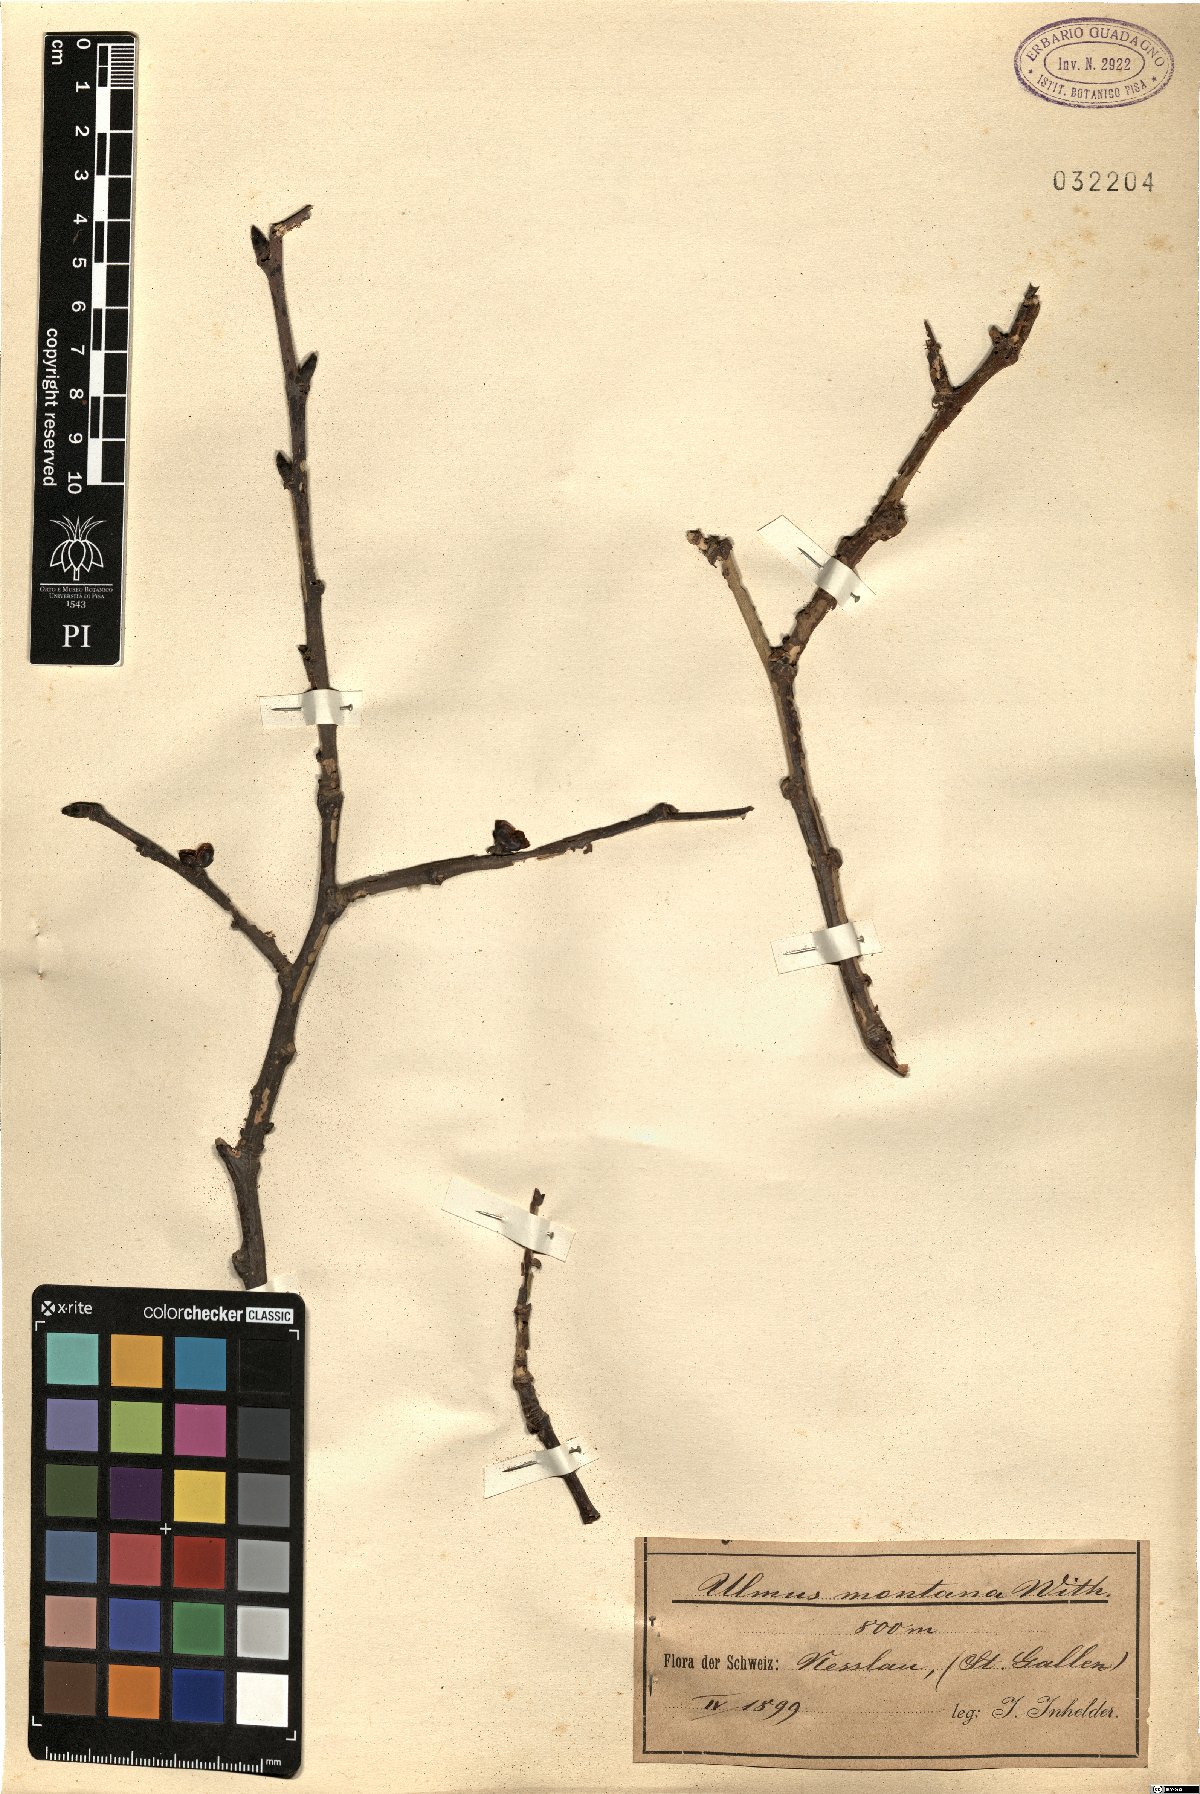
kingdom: Plantae
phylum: Tracheophyta
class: Magnoliopsida
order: Rosales
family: Ulmaceae
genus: Ulmus
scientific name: Ulmus glabra
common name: Wych elm
